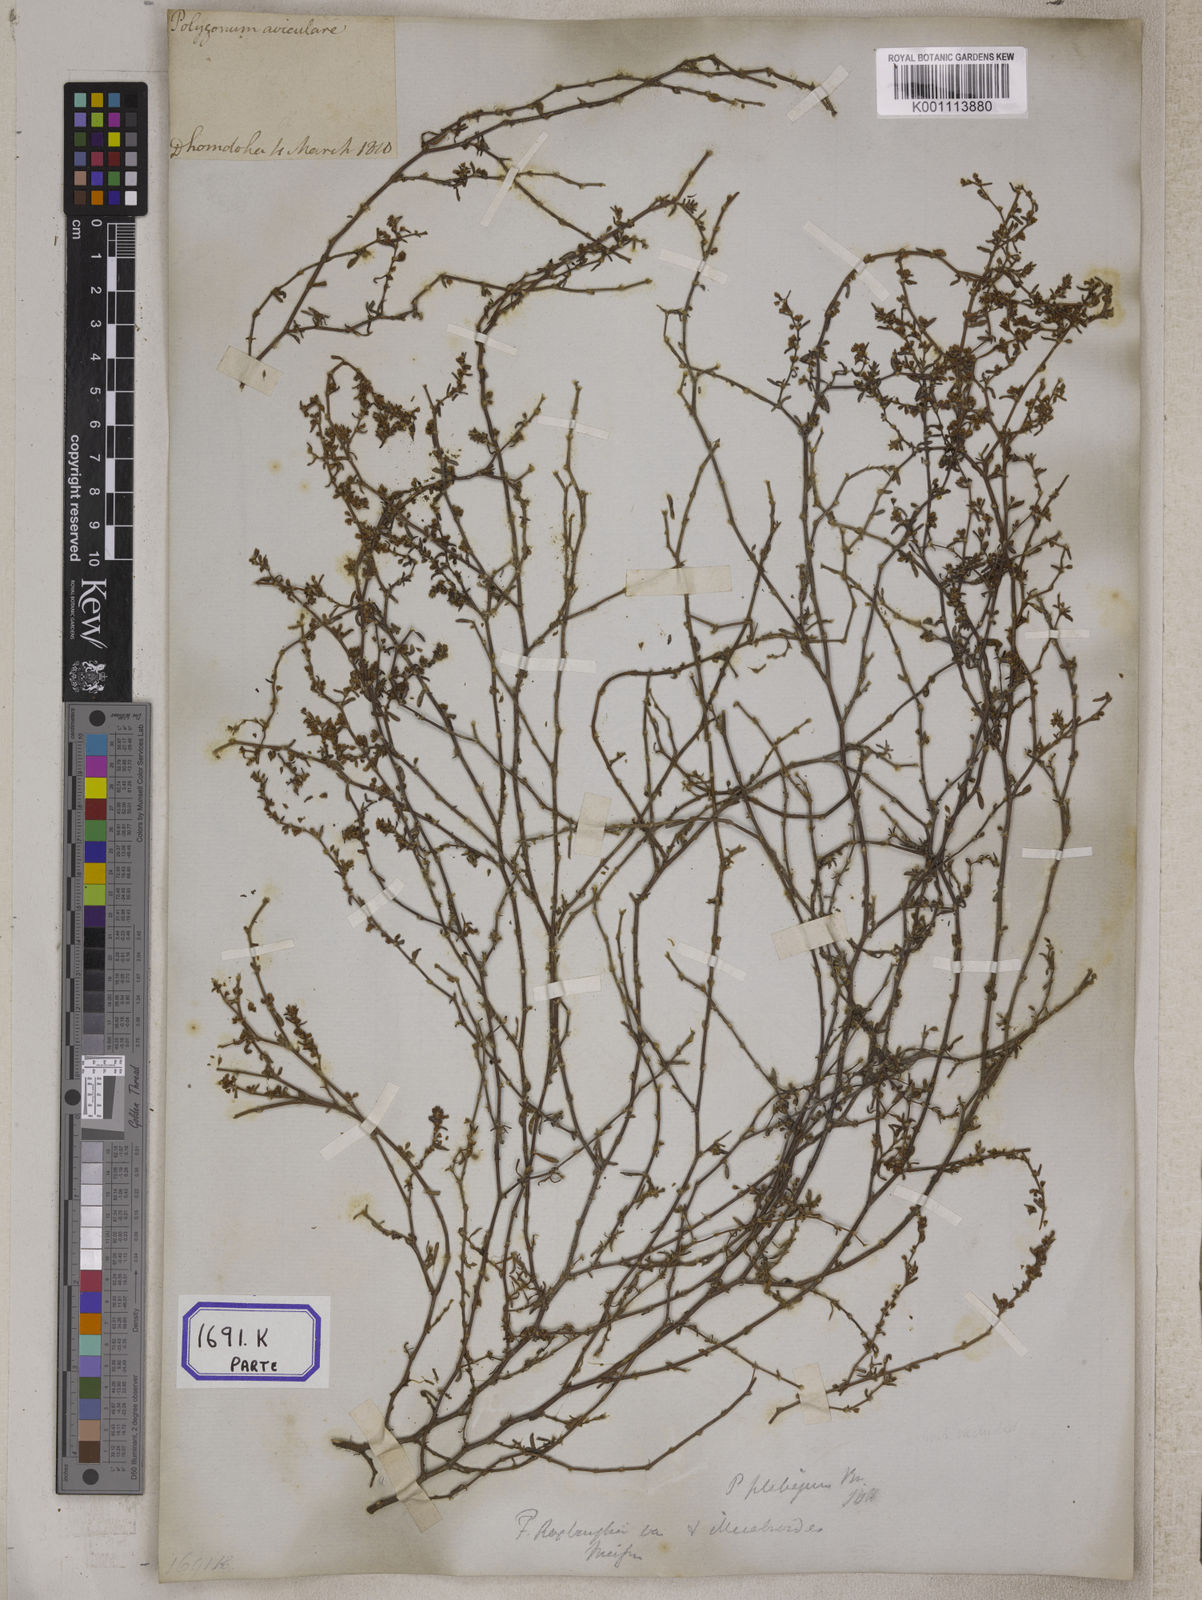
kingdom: Plantae
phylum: Tracheophyta
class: Magnoliopsida
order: Caryophyllales
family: Polygonaceae
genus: Polygonum
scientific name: Polygonum plebeium
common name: Common knotweed
